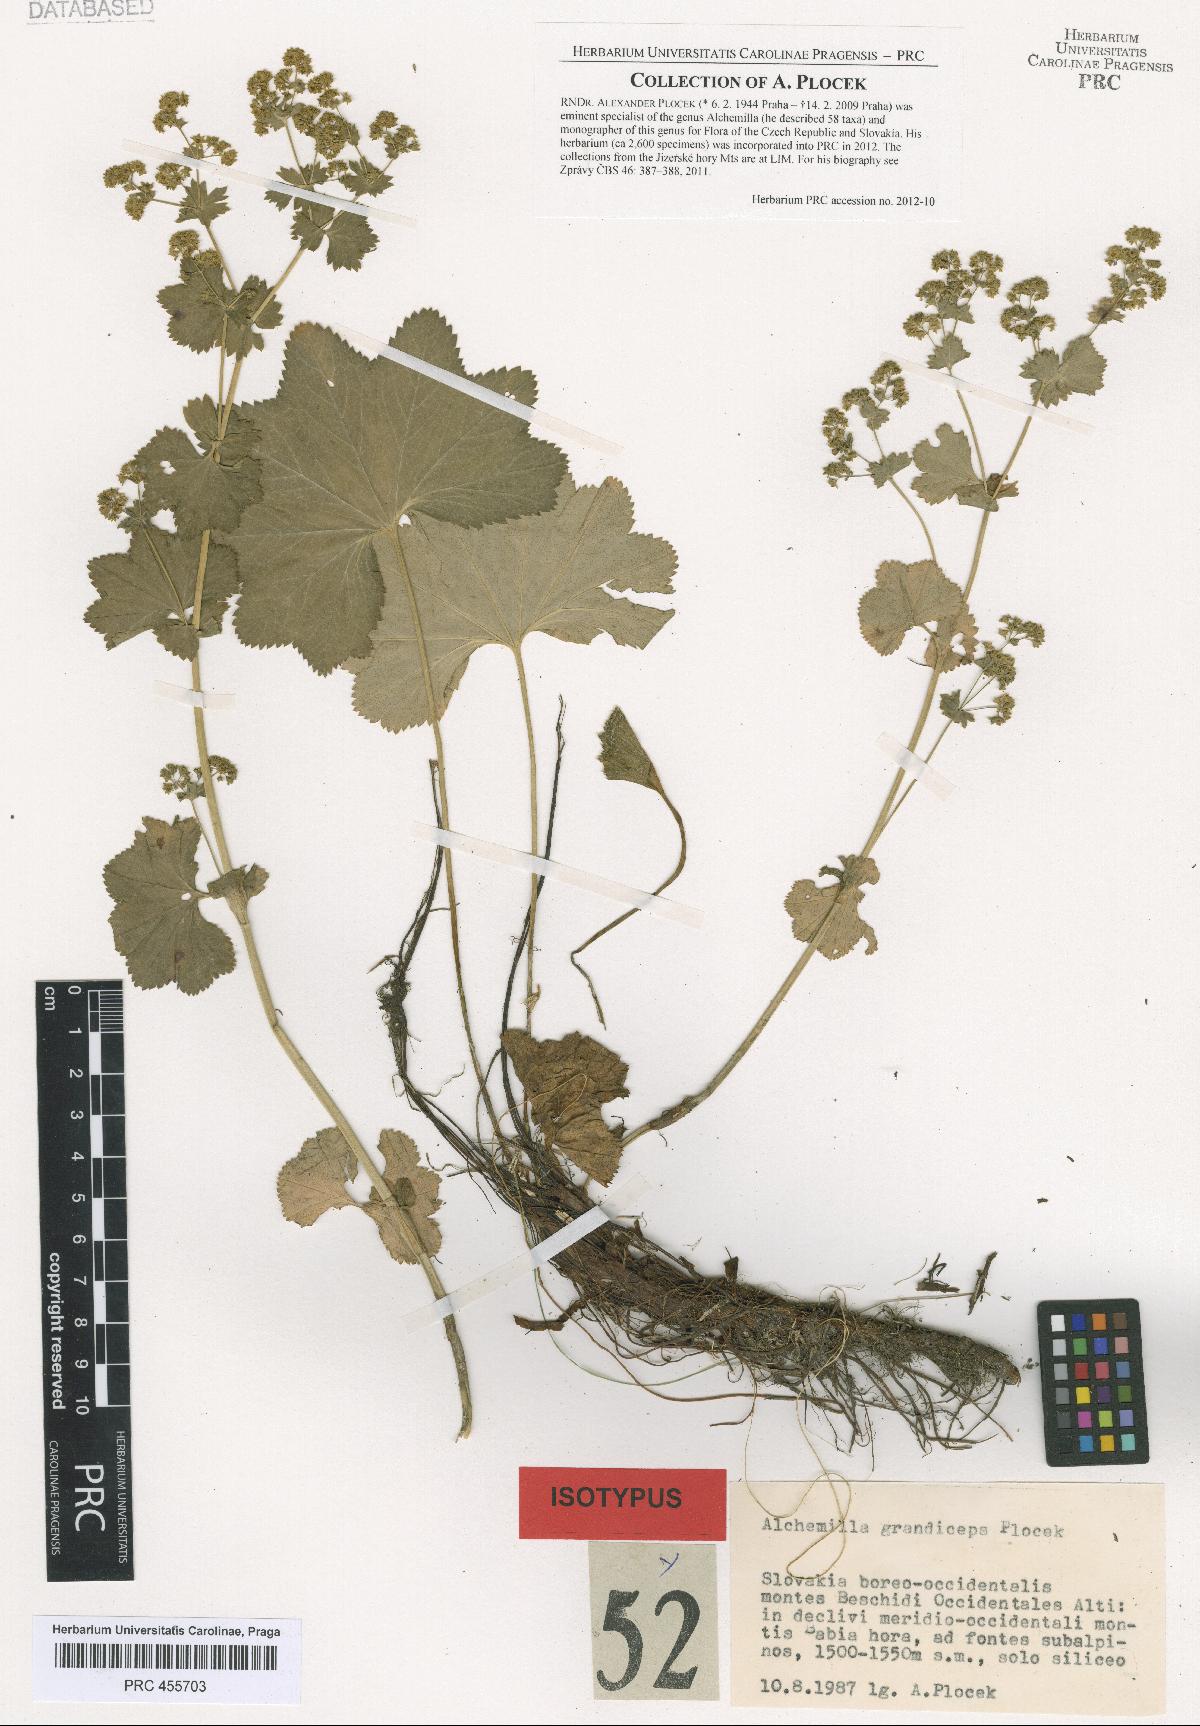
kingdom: Plantae
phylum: Tracheophyta
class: Magnoliopsida
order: Rosales
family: Rosaceae
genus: Alchemilla
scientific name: Alchemilla grandiceps
